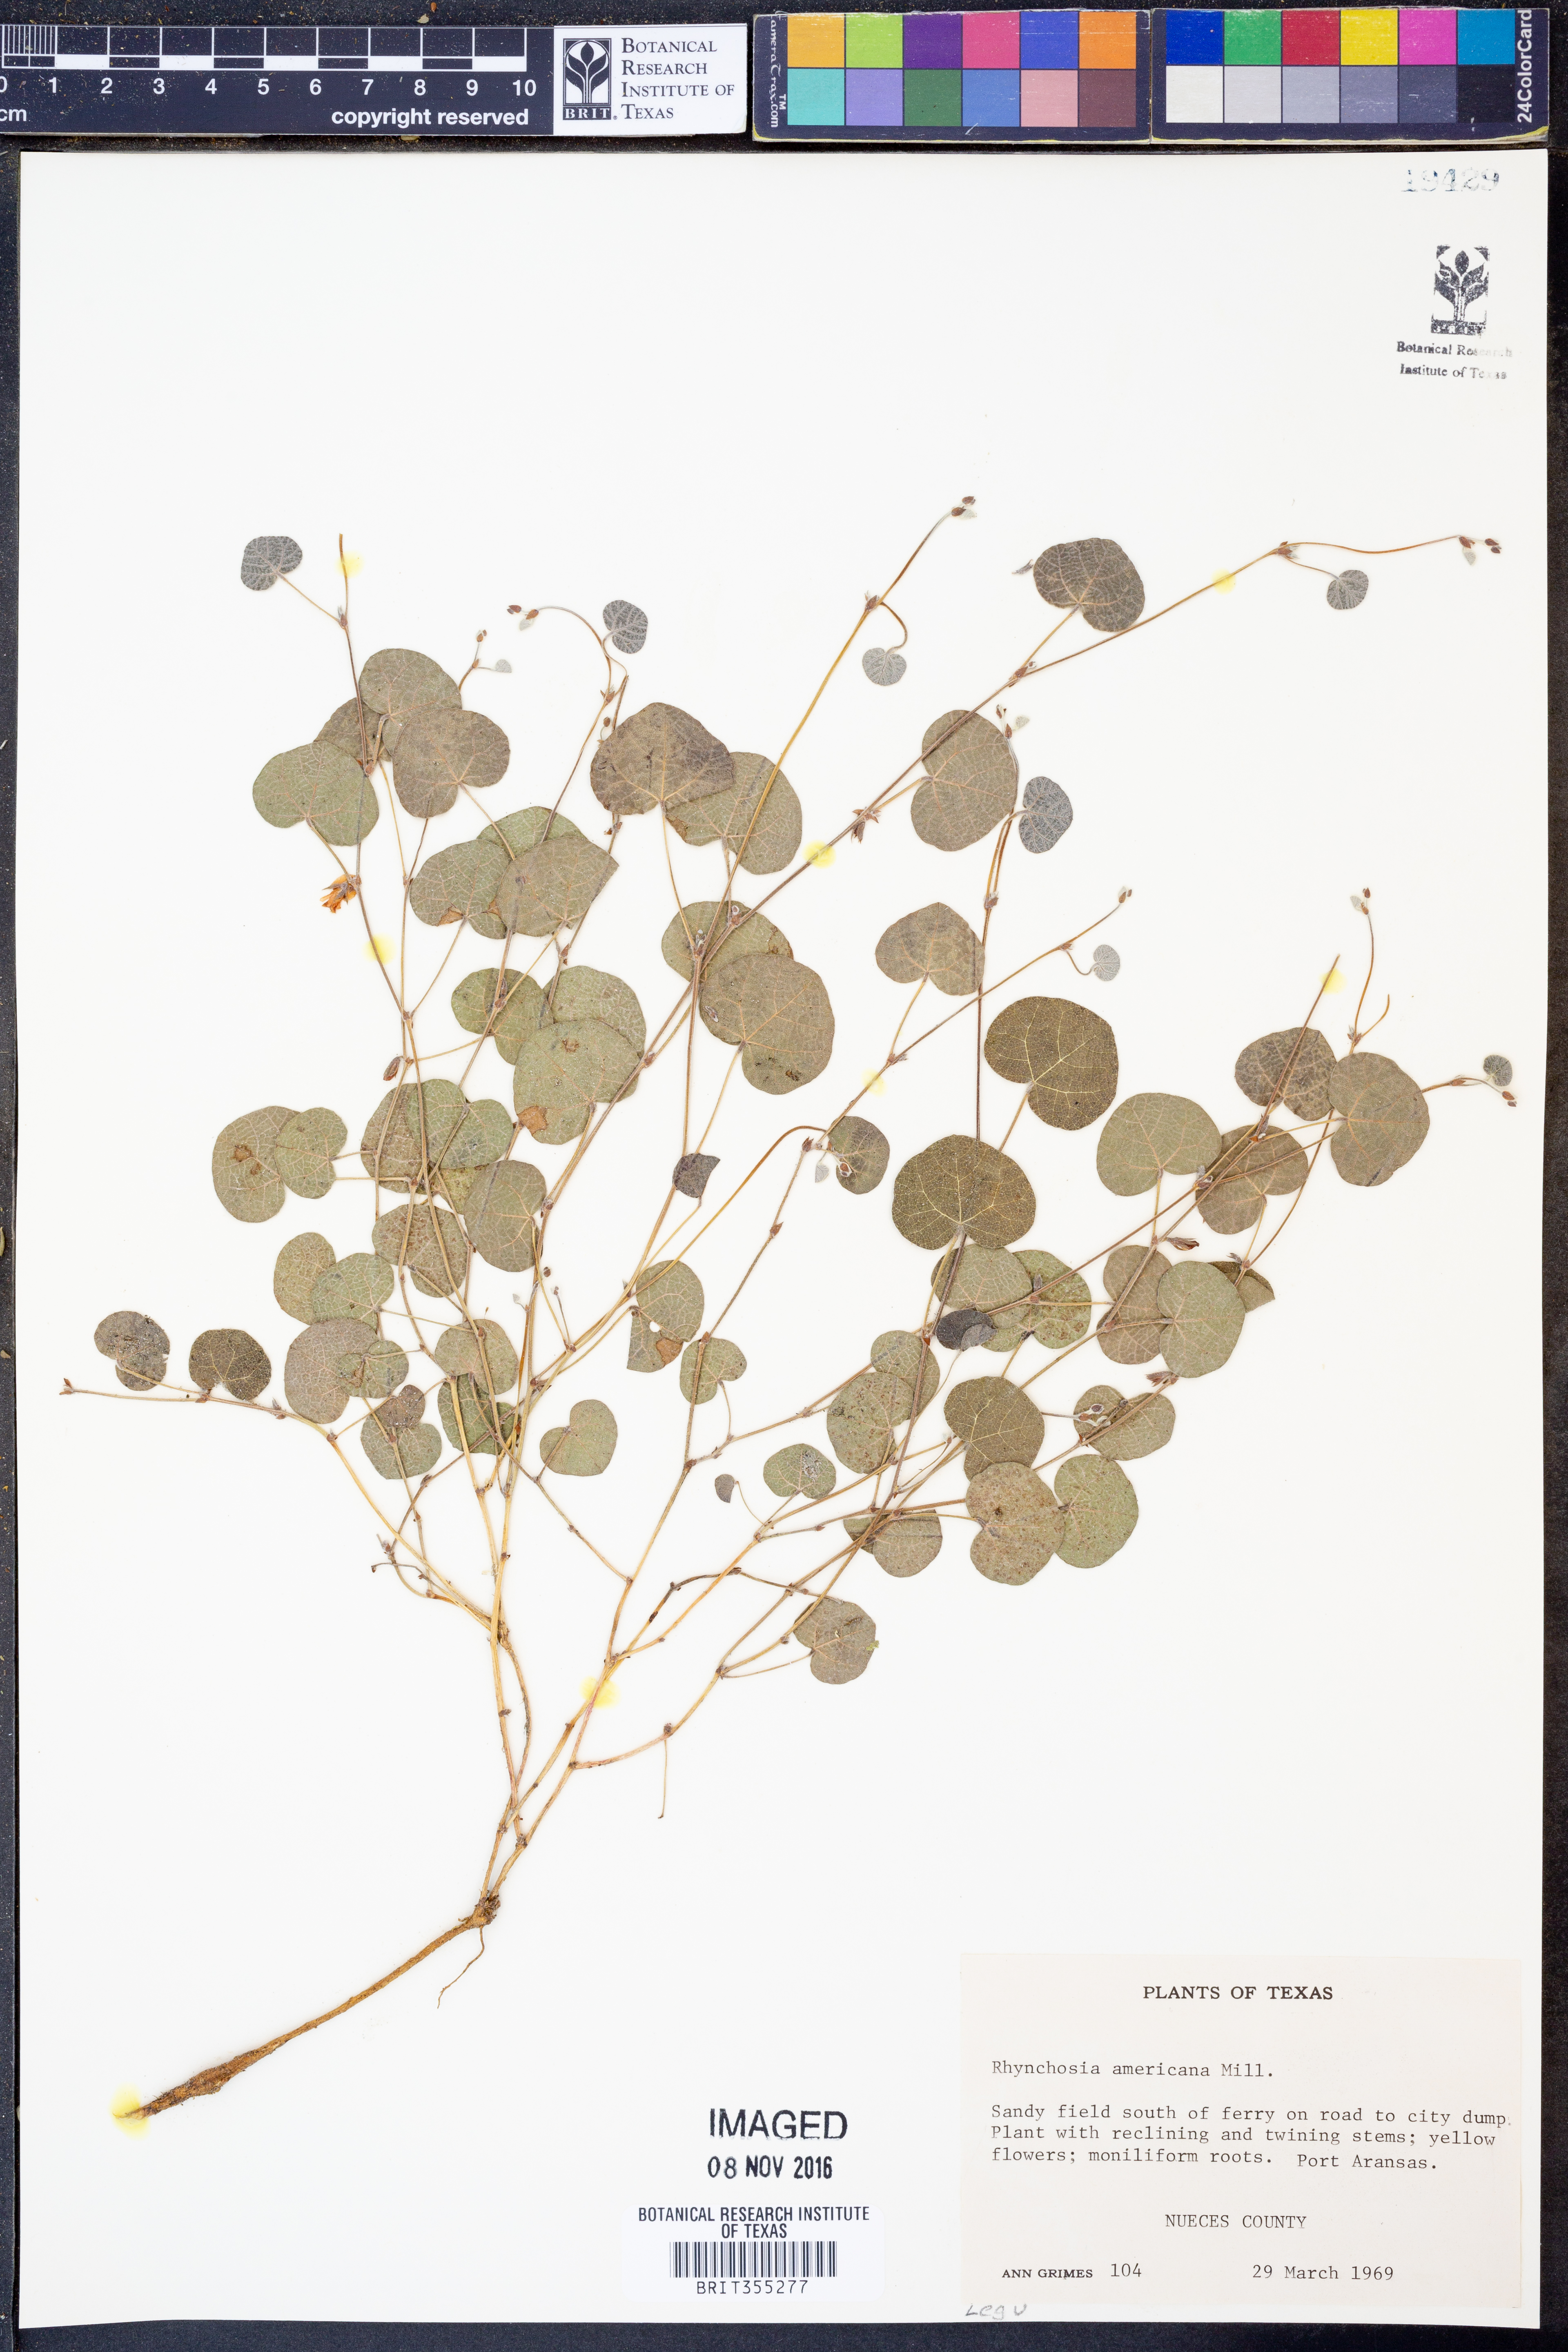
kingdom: Plantae
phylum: Tracheophyta
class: Magnoliopsida
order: Fabales
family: Fabaceae
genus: Rhynchosia
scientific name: Rhynchosia americana
